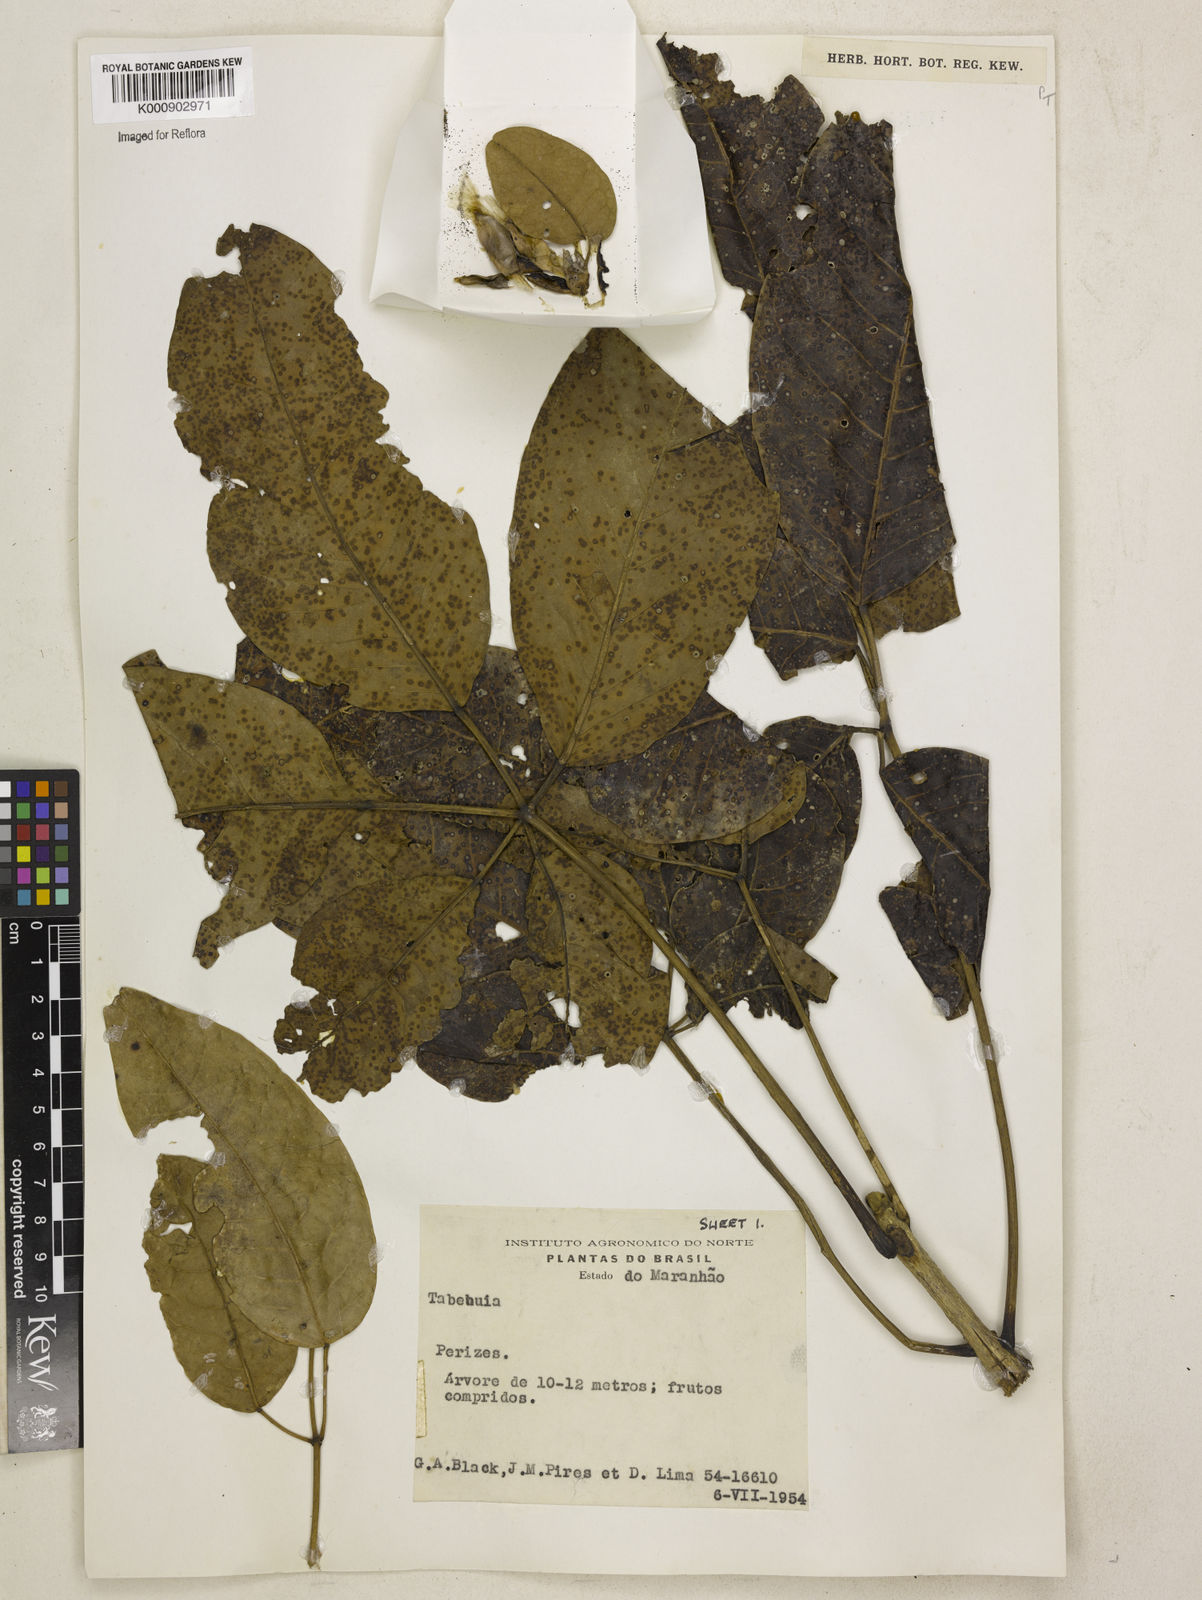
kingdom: Plantae
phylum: Tracheophyta
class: Magnoliopsida
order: Lamiales
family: Bignoniaceae
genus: Tabebuia
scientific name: Tabebuia
